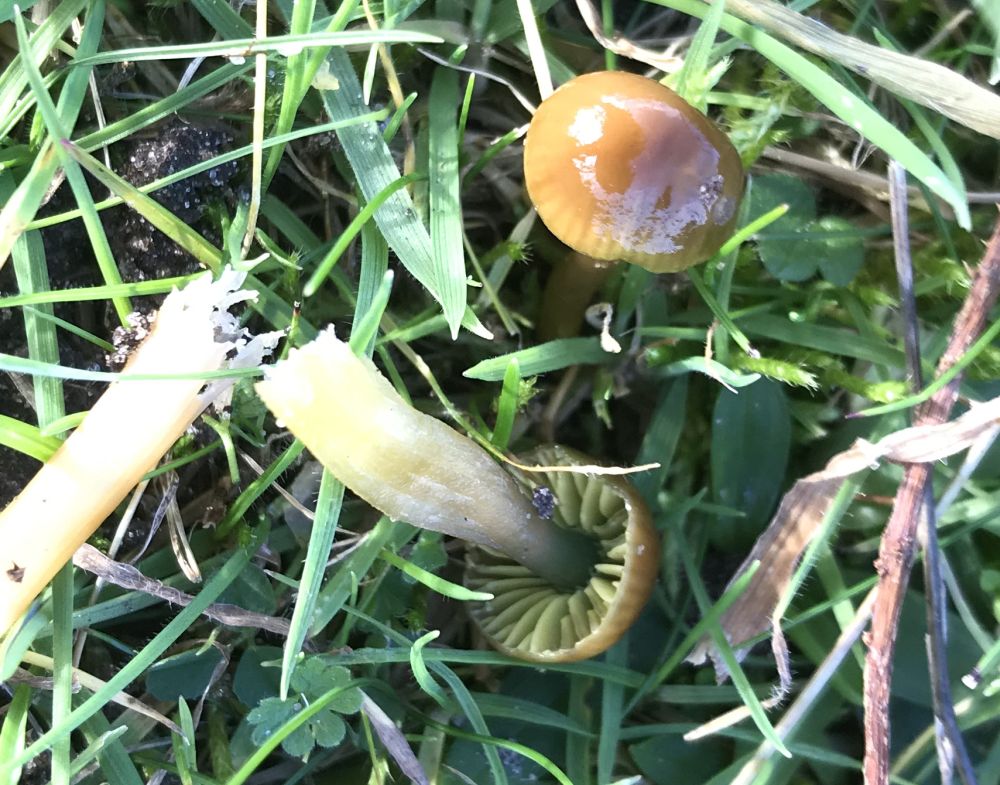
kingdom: Fungi
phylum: Basidiomycota
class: Agaricomycetes
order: Agaricales
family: Hygrophoraceae
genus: Gliophorus
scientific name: Gliophorus psittacinus
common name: papegøje-vokshat
